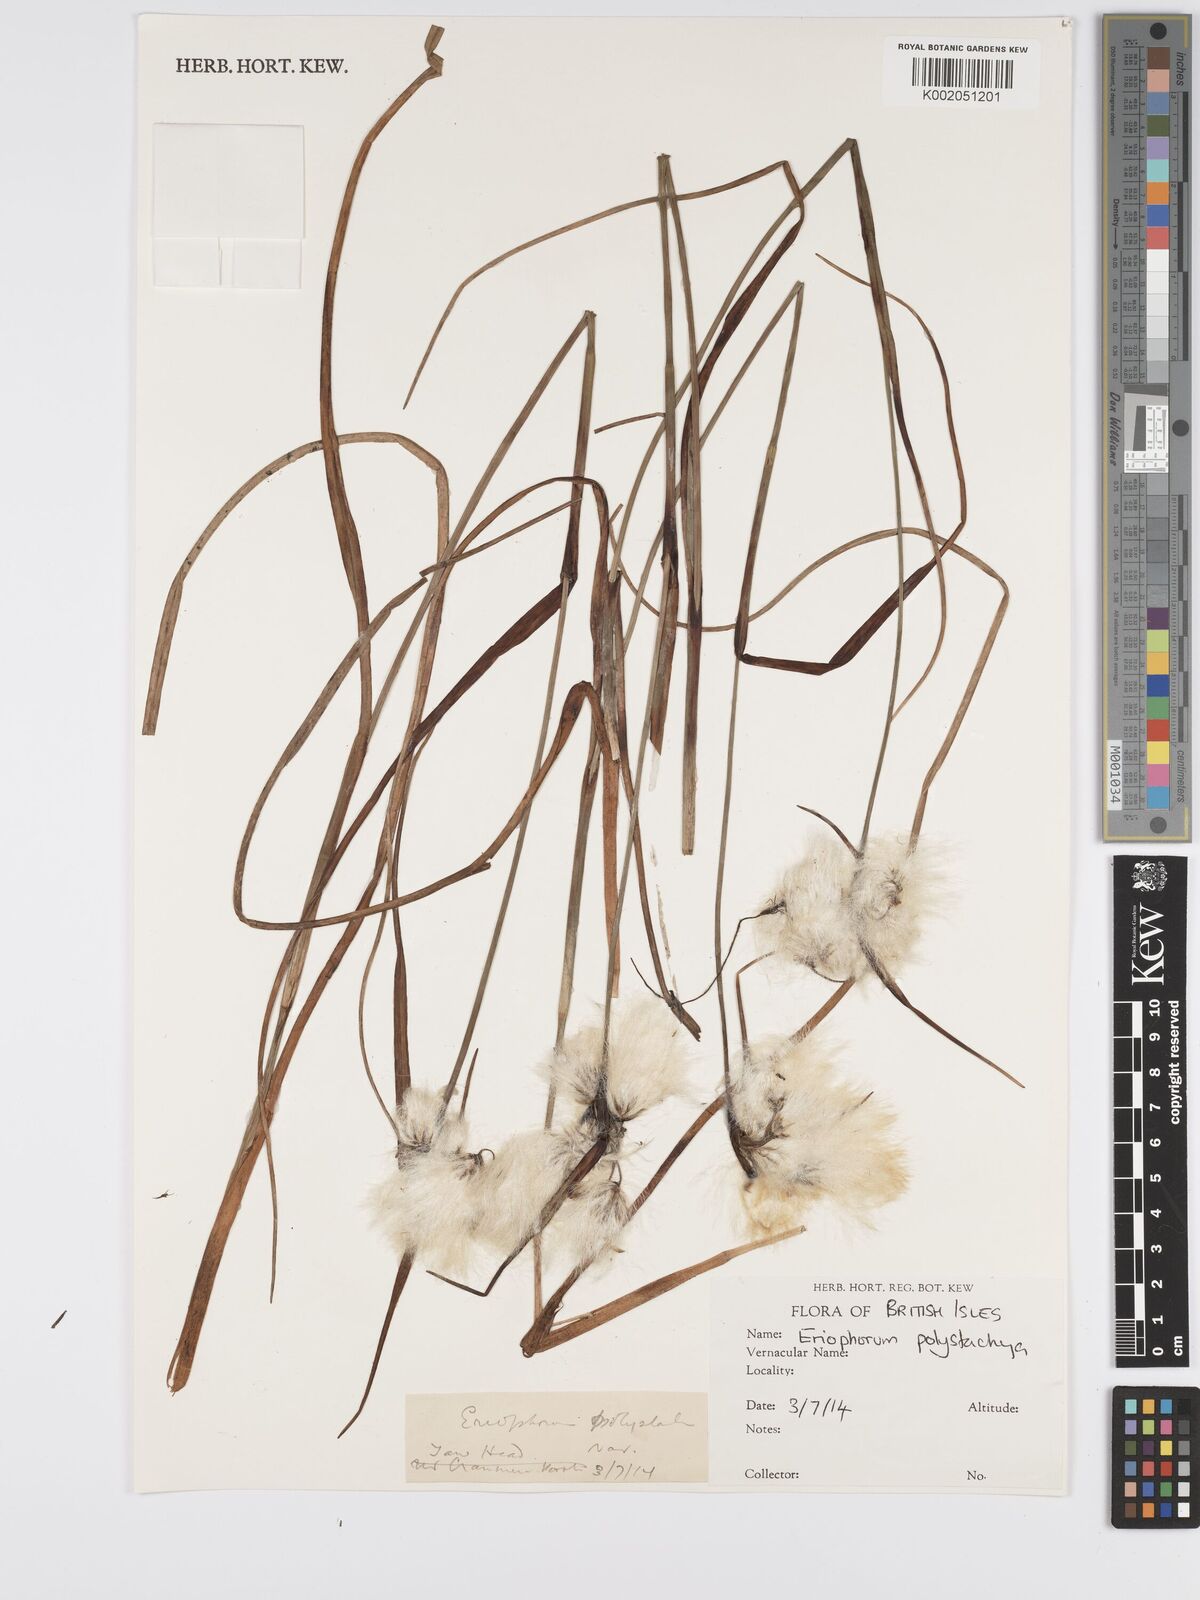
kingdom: Plantae
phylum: Tracheophyta
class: Liliopsida
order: Poales
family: Cyperaceae
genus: Eriophorum
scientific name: Eriophorum latifolium
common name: Broad-leaved cottongrass
